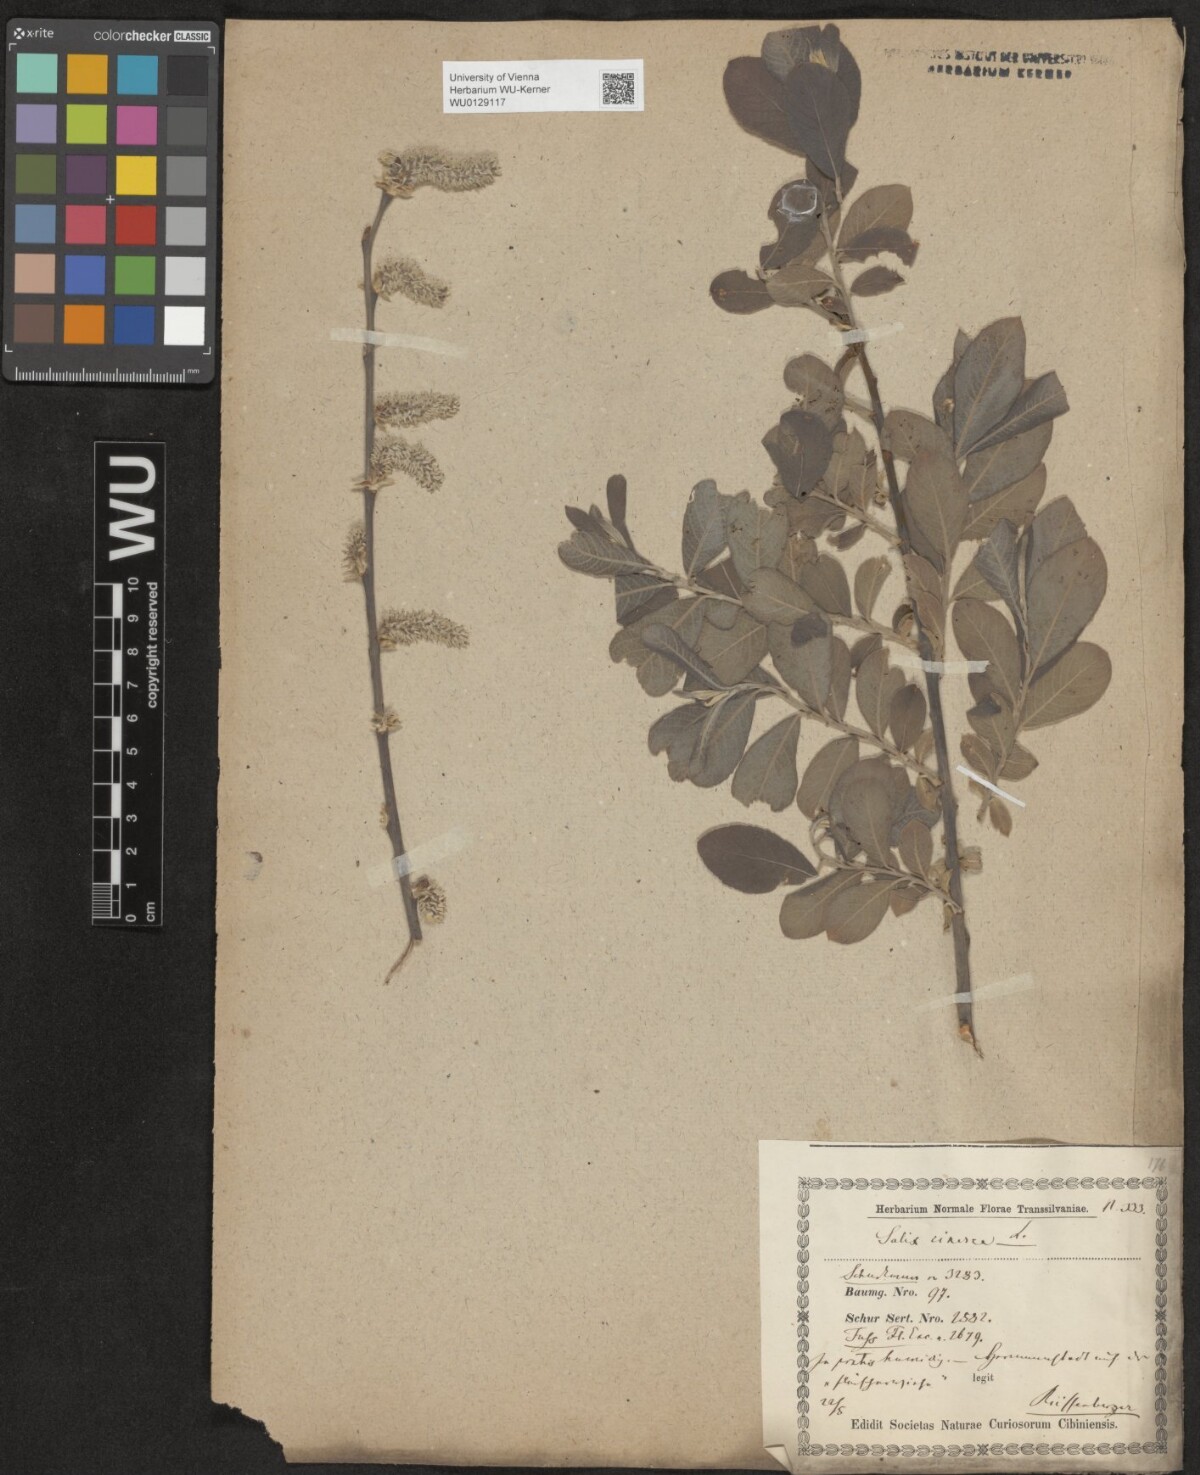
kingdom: Plantae
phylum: Tracheophyta
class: Magnoliopsida
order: Malpighiales
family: Salicaceae
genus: Salix
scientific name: Salix cinerea
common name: Common sallow
